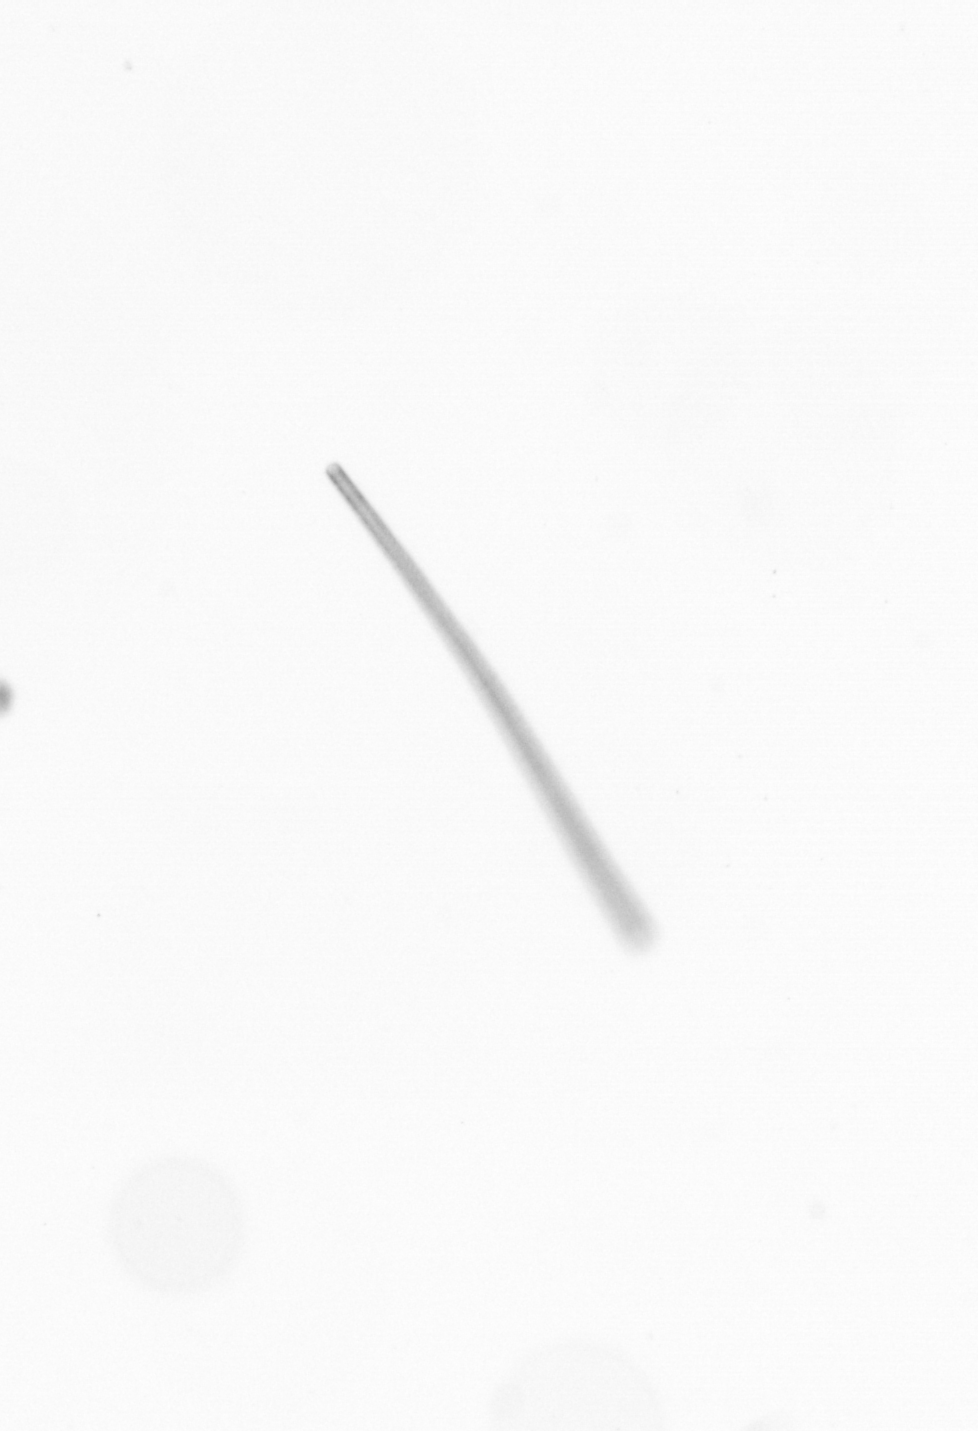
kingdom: Chromista
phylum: Ochrophyta
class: Bacillariophyceae
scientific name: Bacillariophyceae
